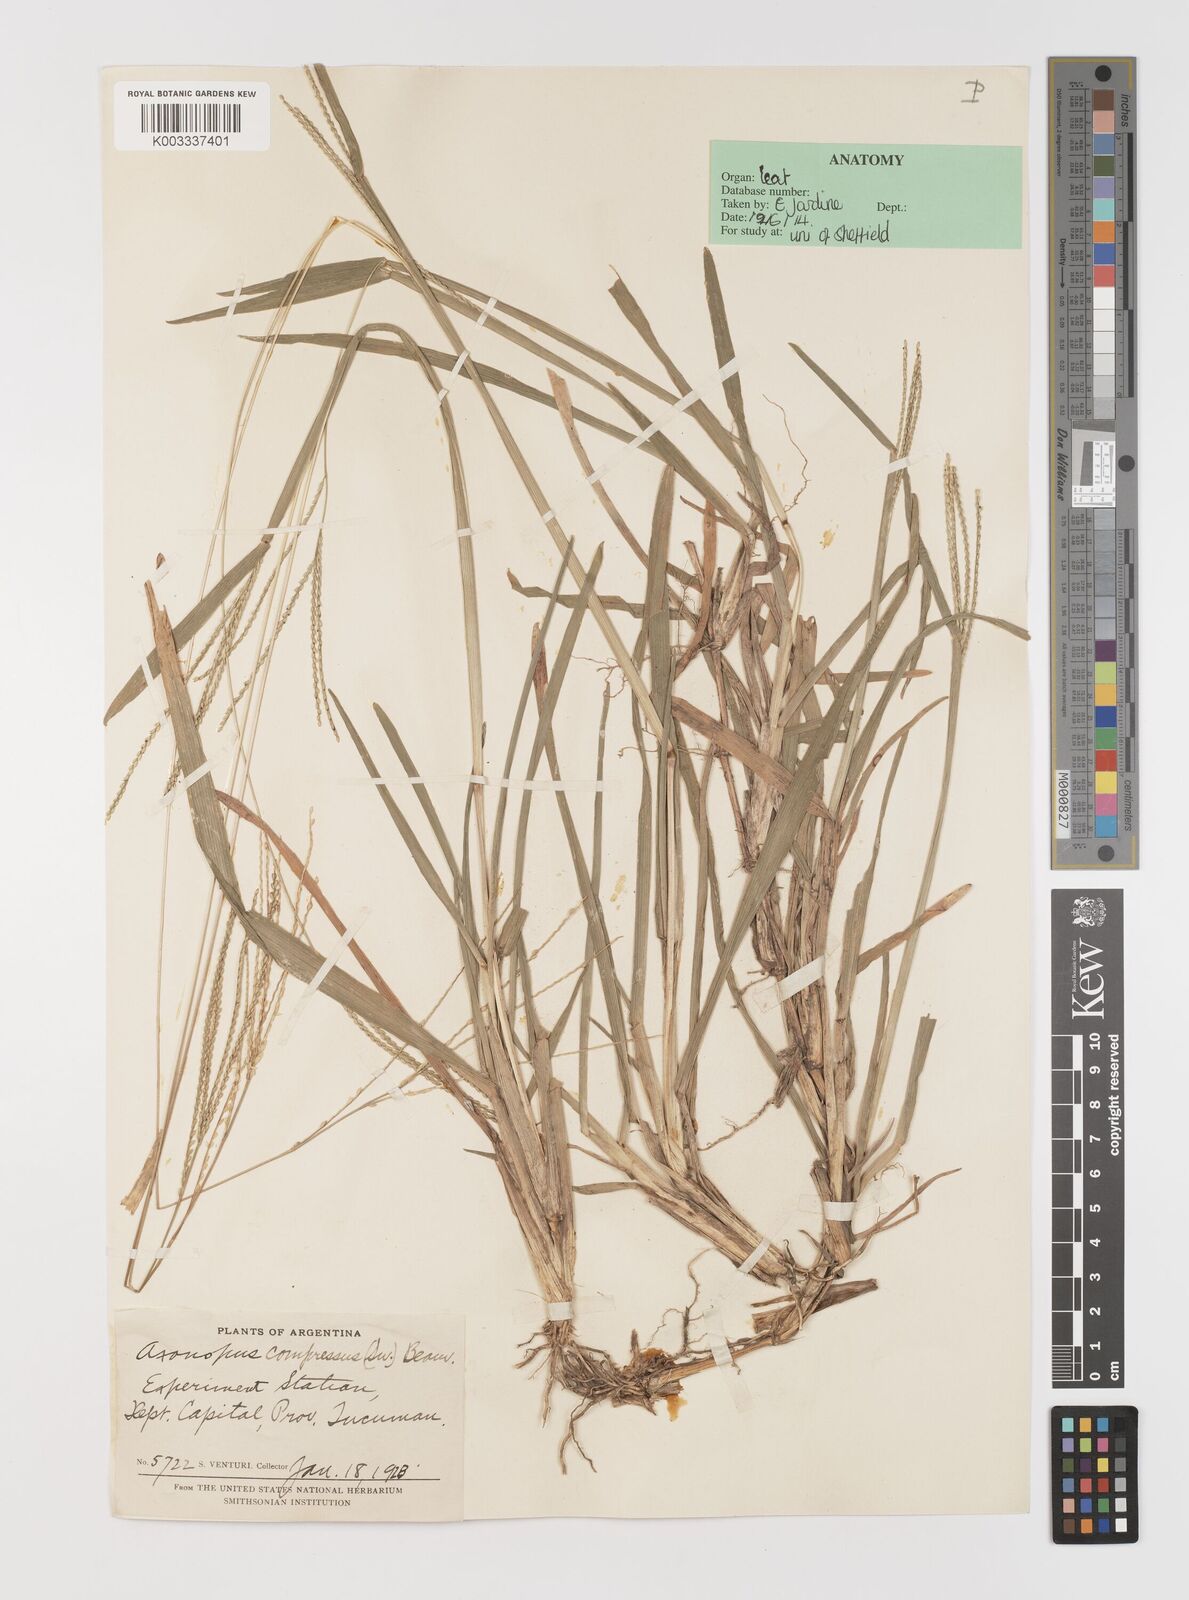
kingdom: Plantae
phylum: Tracheophyta
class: Liliopsida
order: Poales
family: Poaceae
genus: Axonopus
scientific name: Axonopus compressus
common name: American carpet grass
